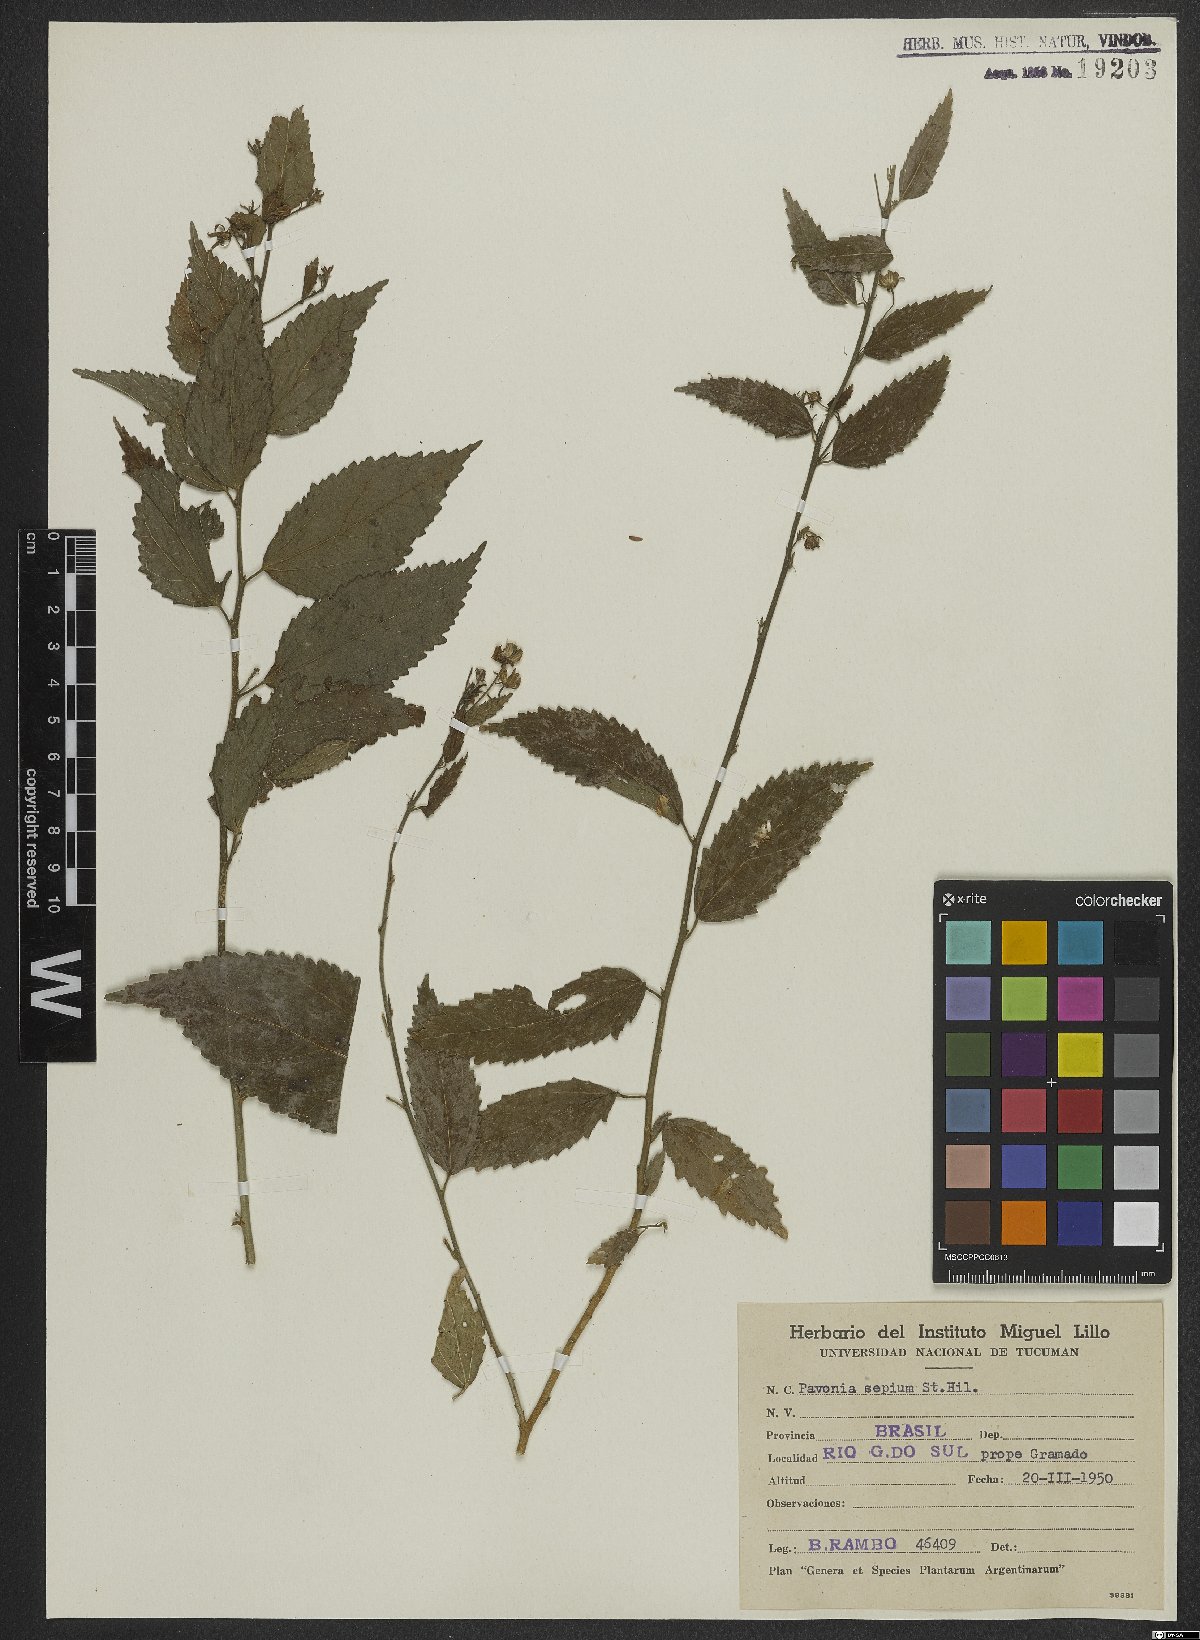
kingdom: Plantae
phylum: Tracheophyta
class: Magnoliopsida
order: Malvales
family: Malvaceae
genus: Pavonia
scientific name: Pavonia sepium
